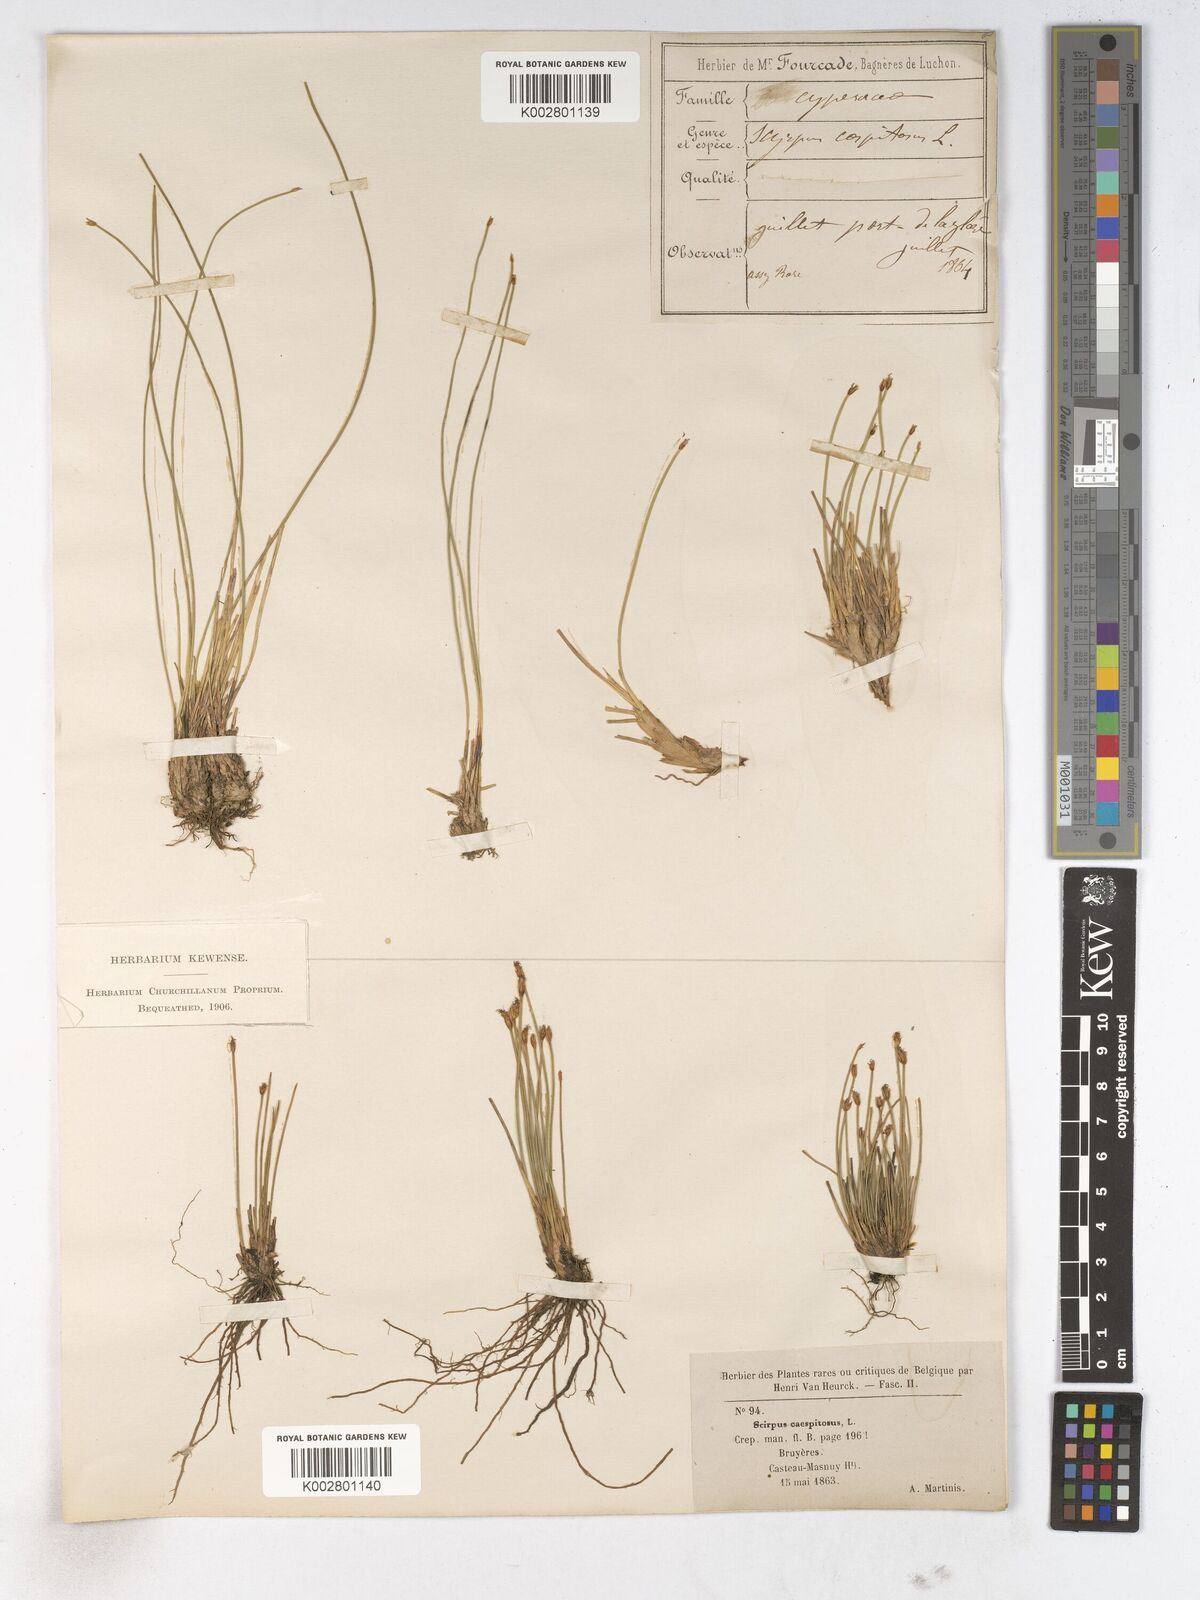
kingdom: Plantae
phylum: Tracheophyta
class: Liliopsida
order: Poales
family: Cyperaceae
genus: Trichophorum
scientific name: Trichophorum cespitosum
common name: Cespitose bulrush
